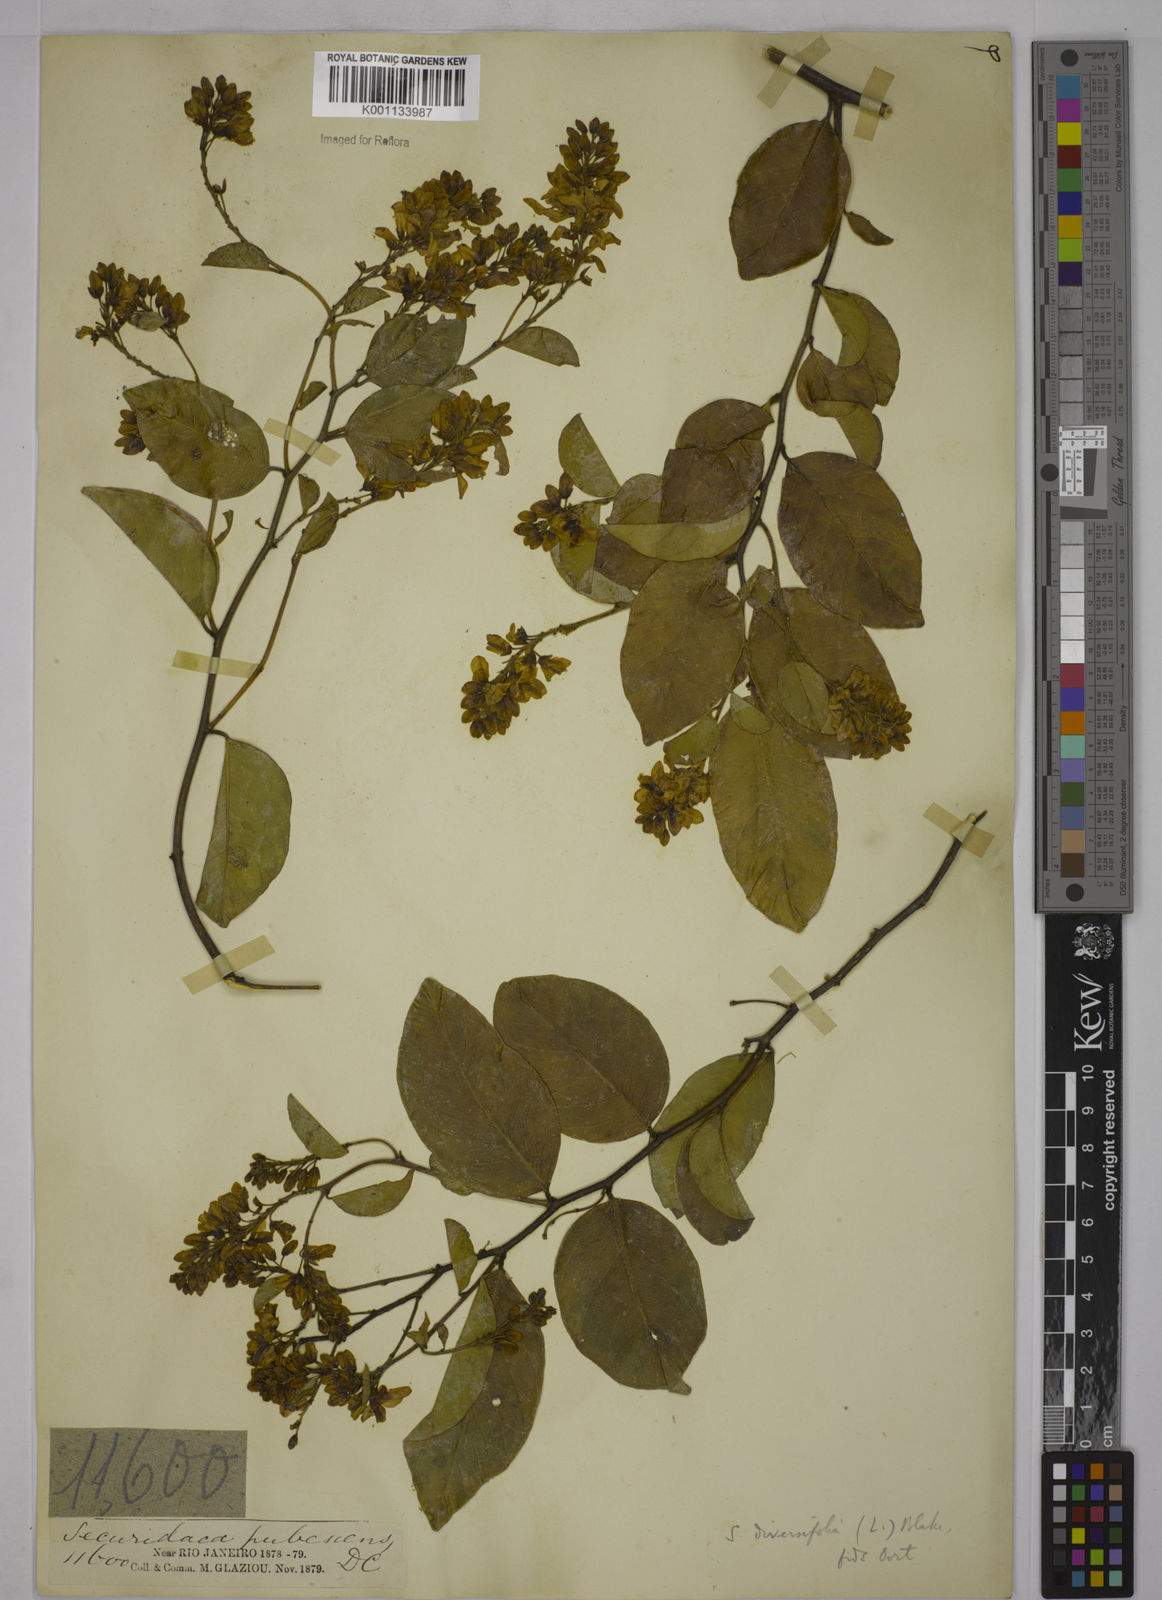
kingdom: Plantae
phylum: Tracheophyta
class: Magnoliopsida
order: Fabales
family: Polygalaceae
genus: Securidaca
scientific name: Securidaca diversifolia
